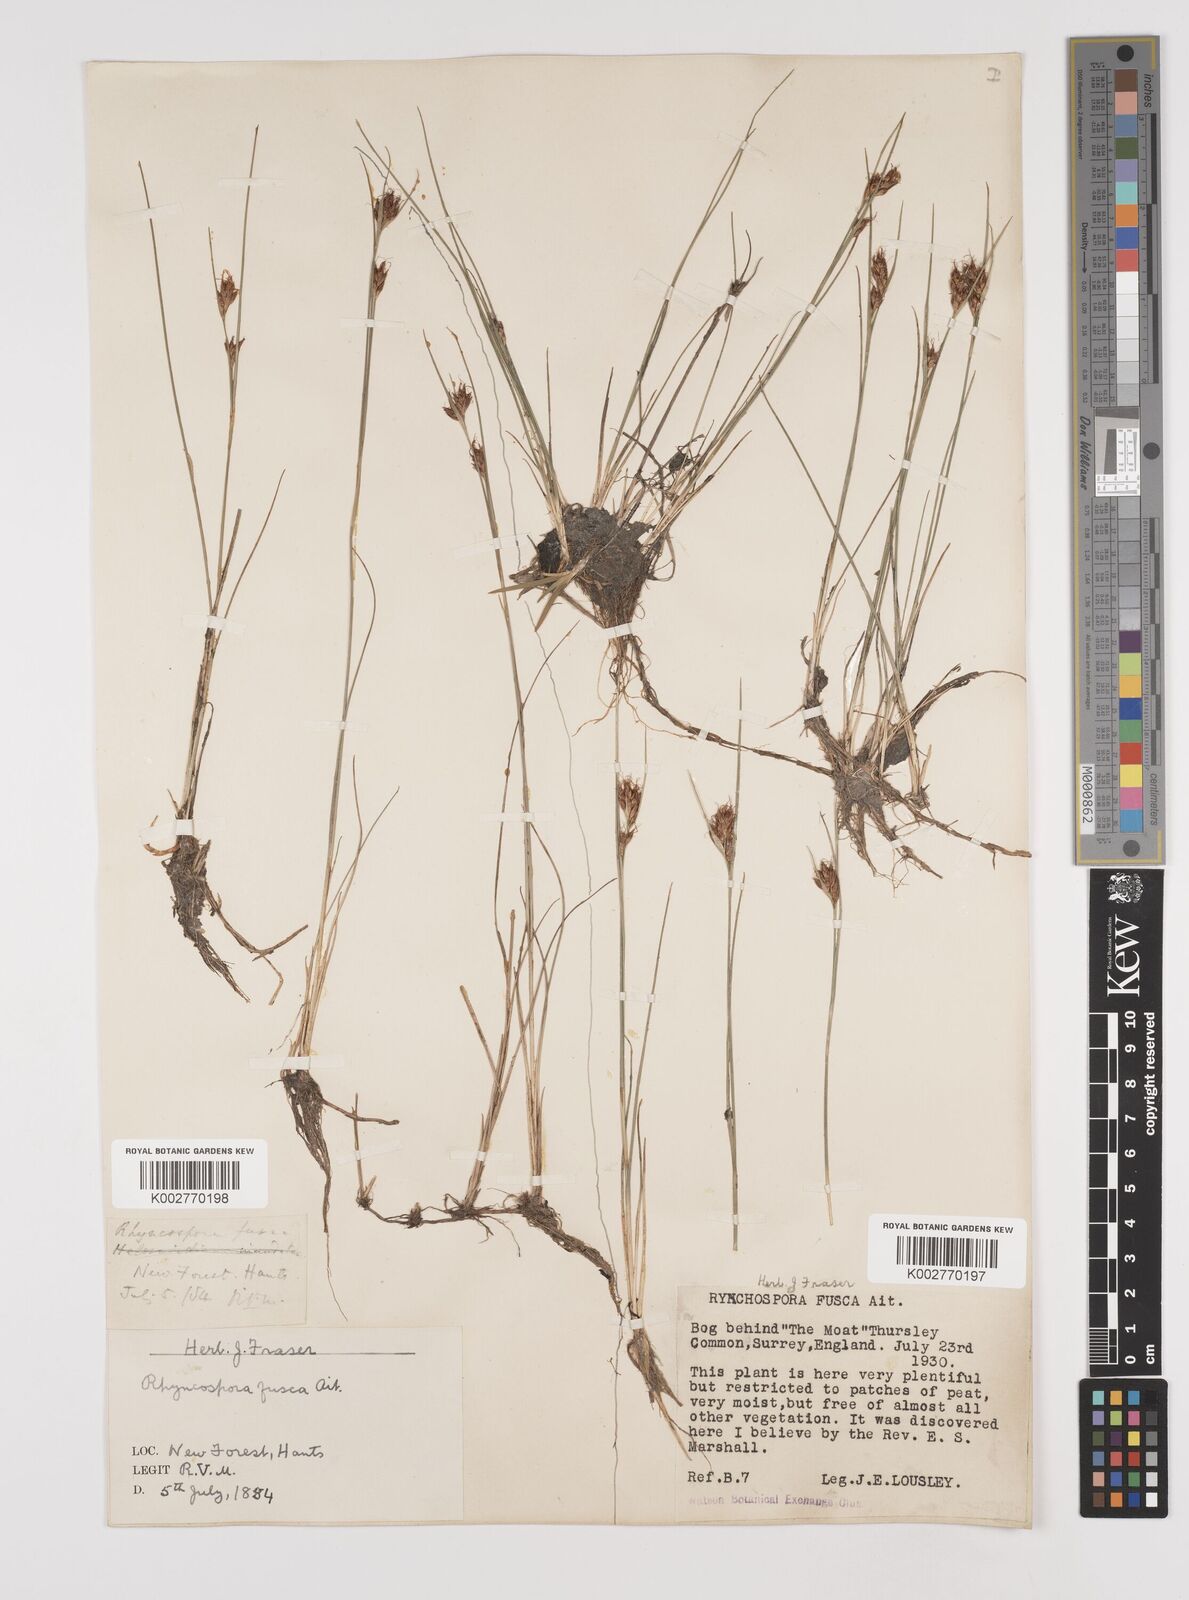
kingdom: Plantae
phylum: Tracheophyta
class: Liliopsida
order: Poales
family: Cyperaceae
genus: Rhynchospora
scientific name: Rhynchospora fusca
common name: Brown beak-sedge
